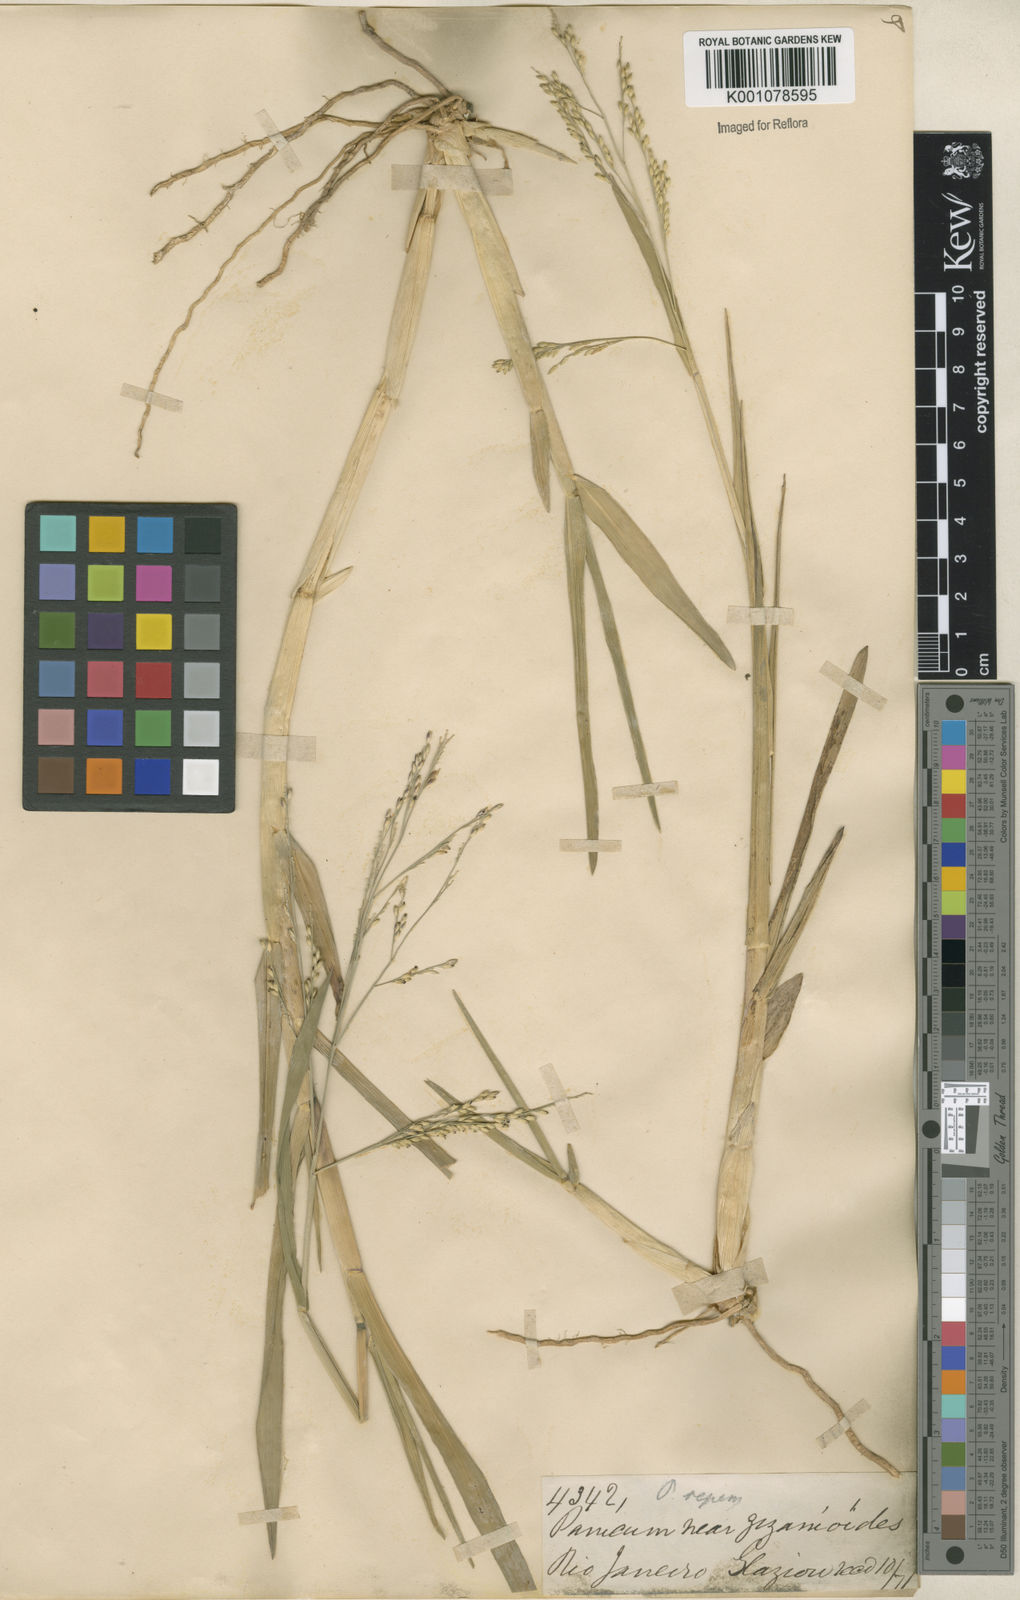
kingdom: Plantae
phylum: Tracheophyta
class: Liliopsida
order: Poales
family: Poaceae
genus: Panicum
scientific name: Panicum dichotomiflorum
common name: Autumn millet
